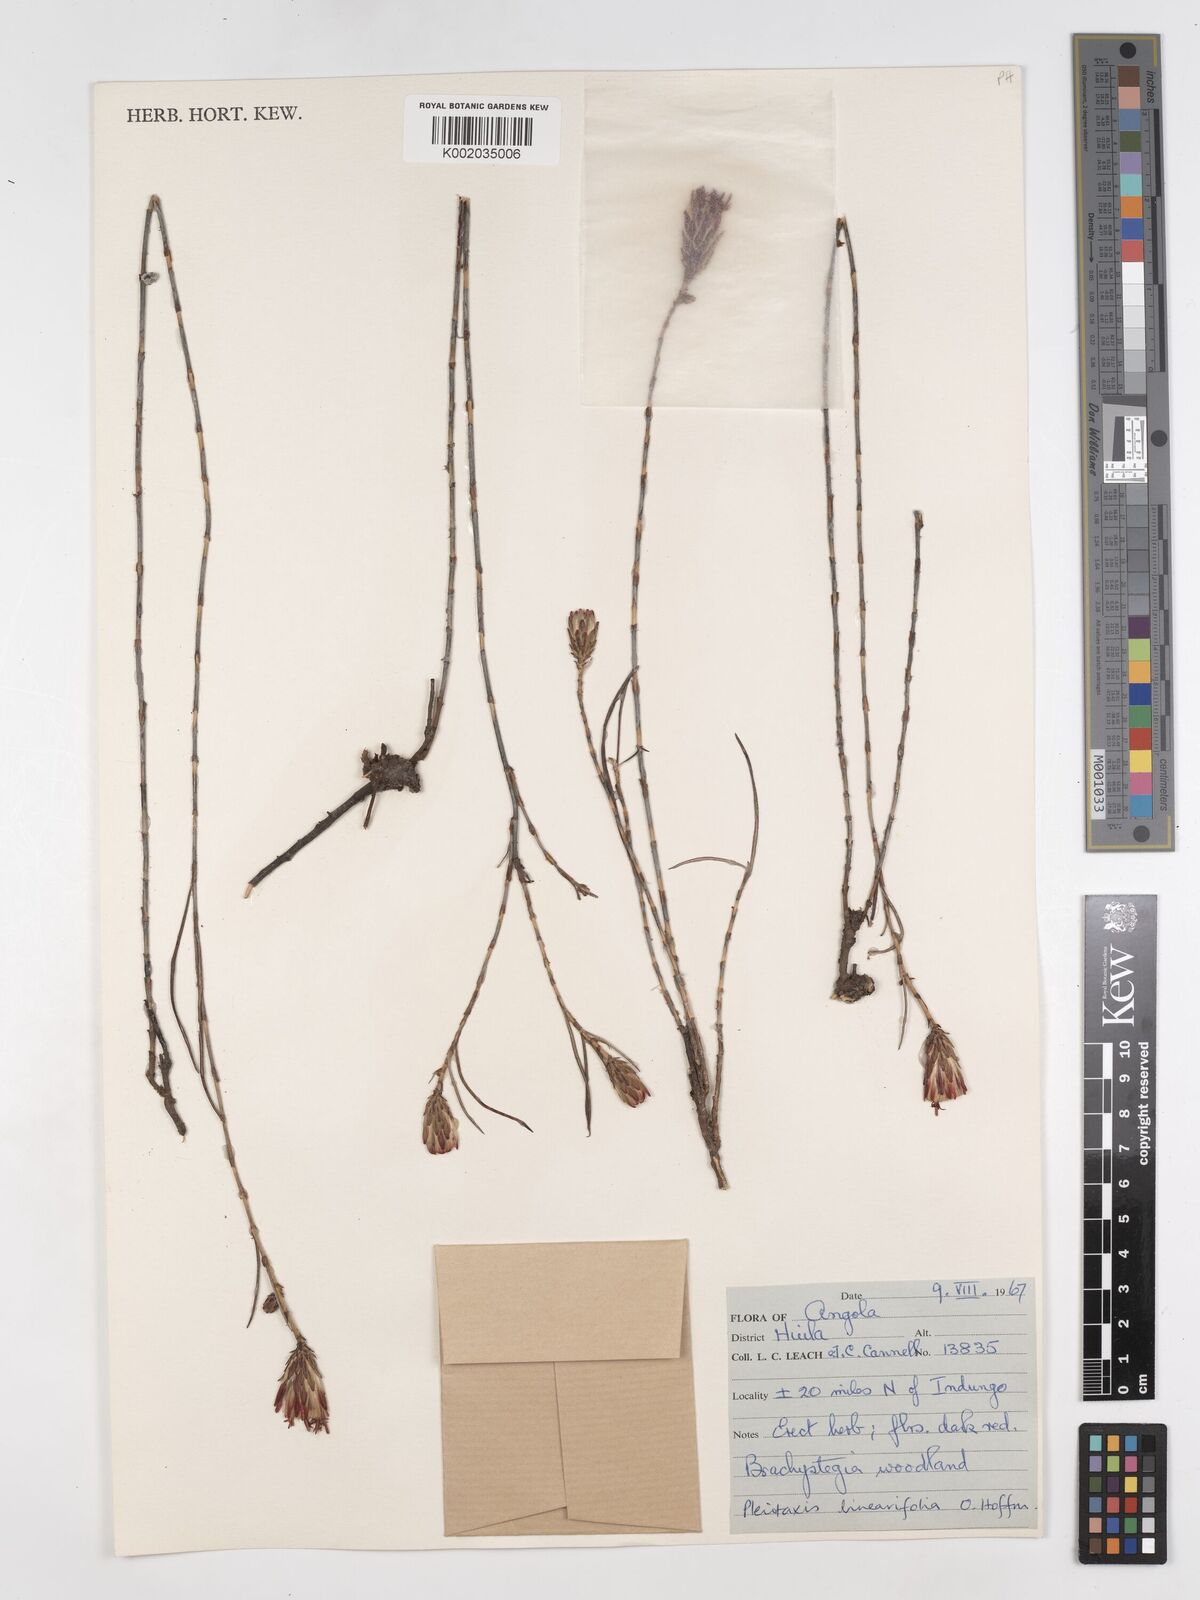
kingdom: Plantae
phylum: Tracheophyta
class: Magnoliopsida
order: Asterales
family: Asteraceae
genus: Pleiotaxis
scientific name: Pleiotaxis linearifolia
